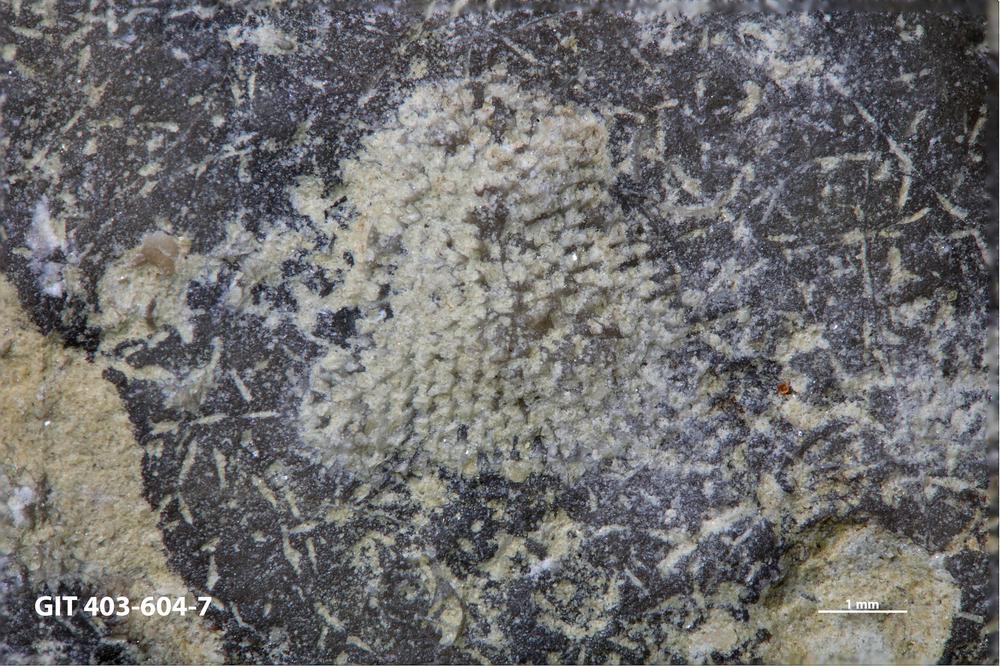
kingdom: Animalia
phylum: Bryozoa
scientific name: Bryozoa
